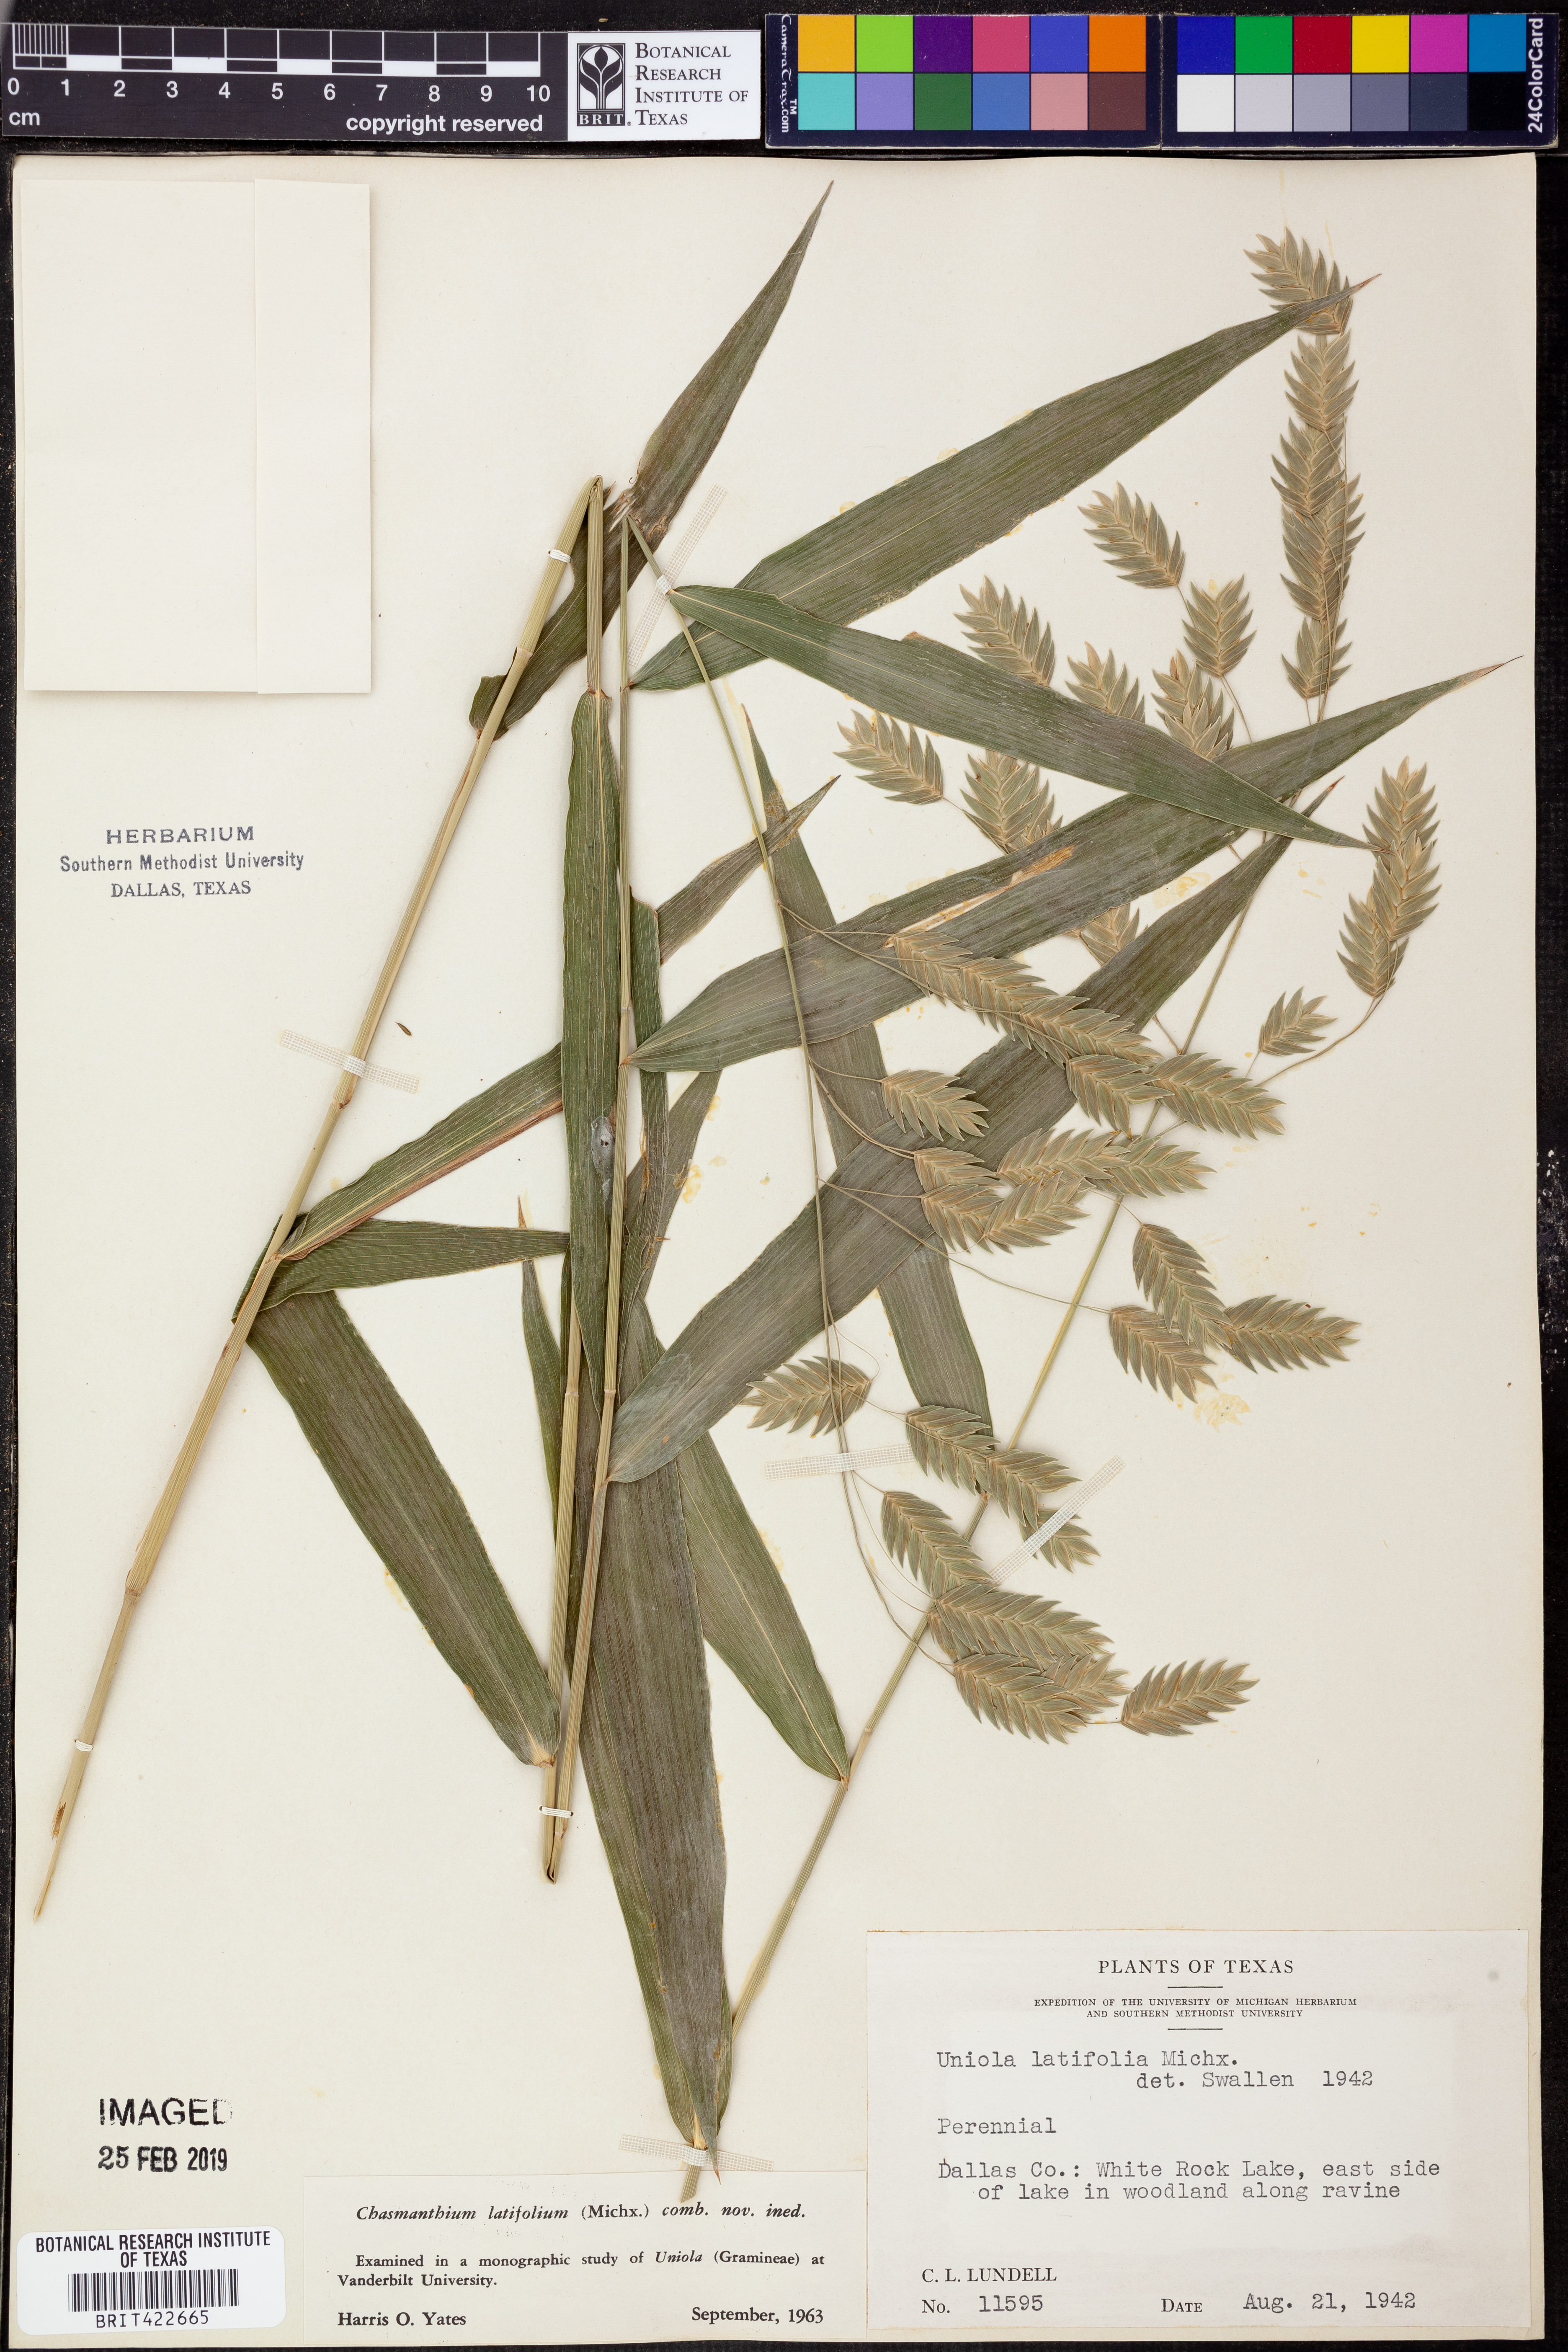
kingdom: Plantae
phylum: Tracheophyta
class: Liliopsida
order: Poales
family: Poaceae
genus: Chasmanthium
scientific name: Chasmanthium latifolium
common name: Broad-leaved chasmanthium
